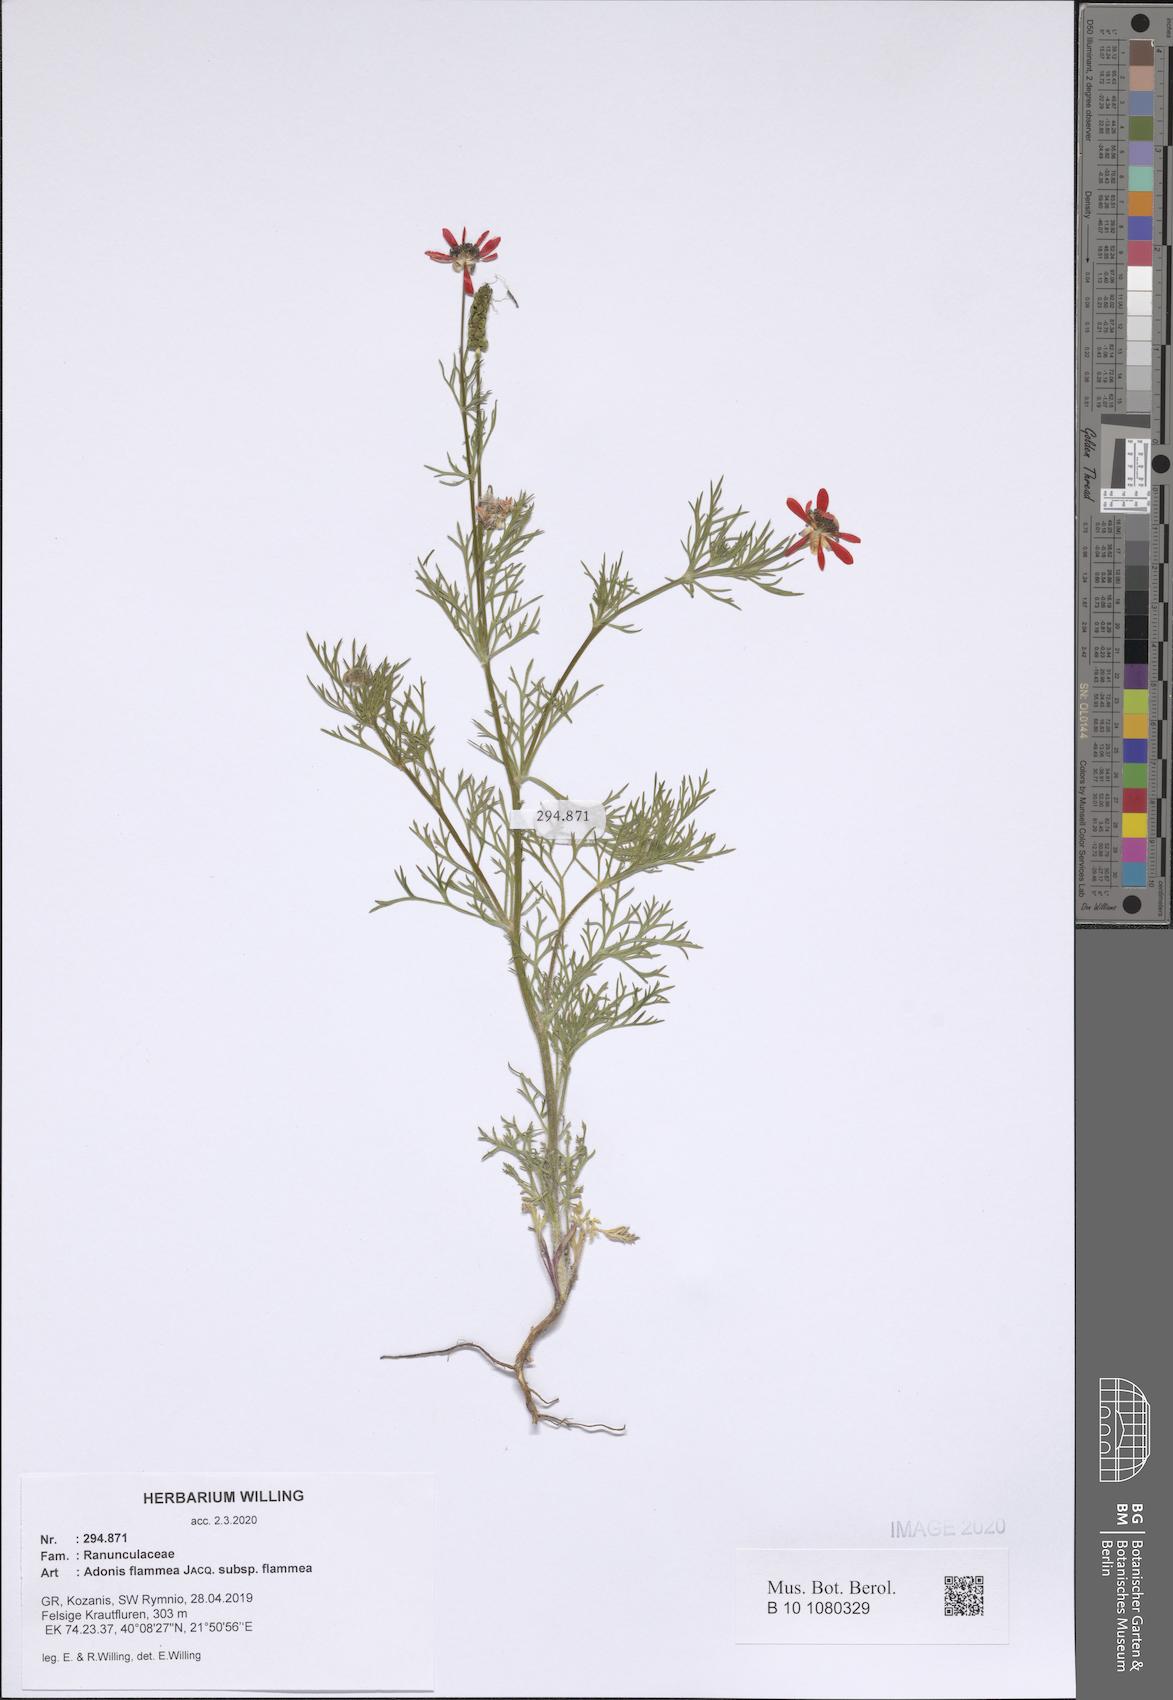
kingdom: Plantae
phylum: Tracheophyta
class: Magnoliopsida
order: Ranunculales
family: Ranunculaceae
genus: Adonis
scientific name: Adonis flammea
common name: Large pheasant's-eye
